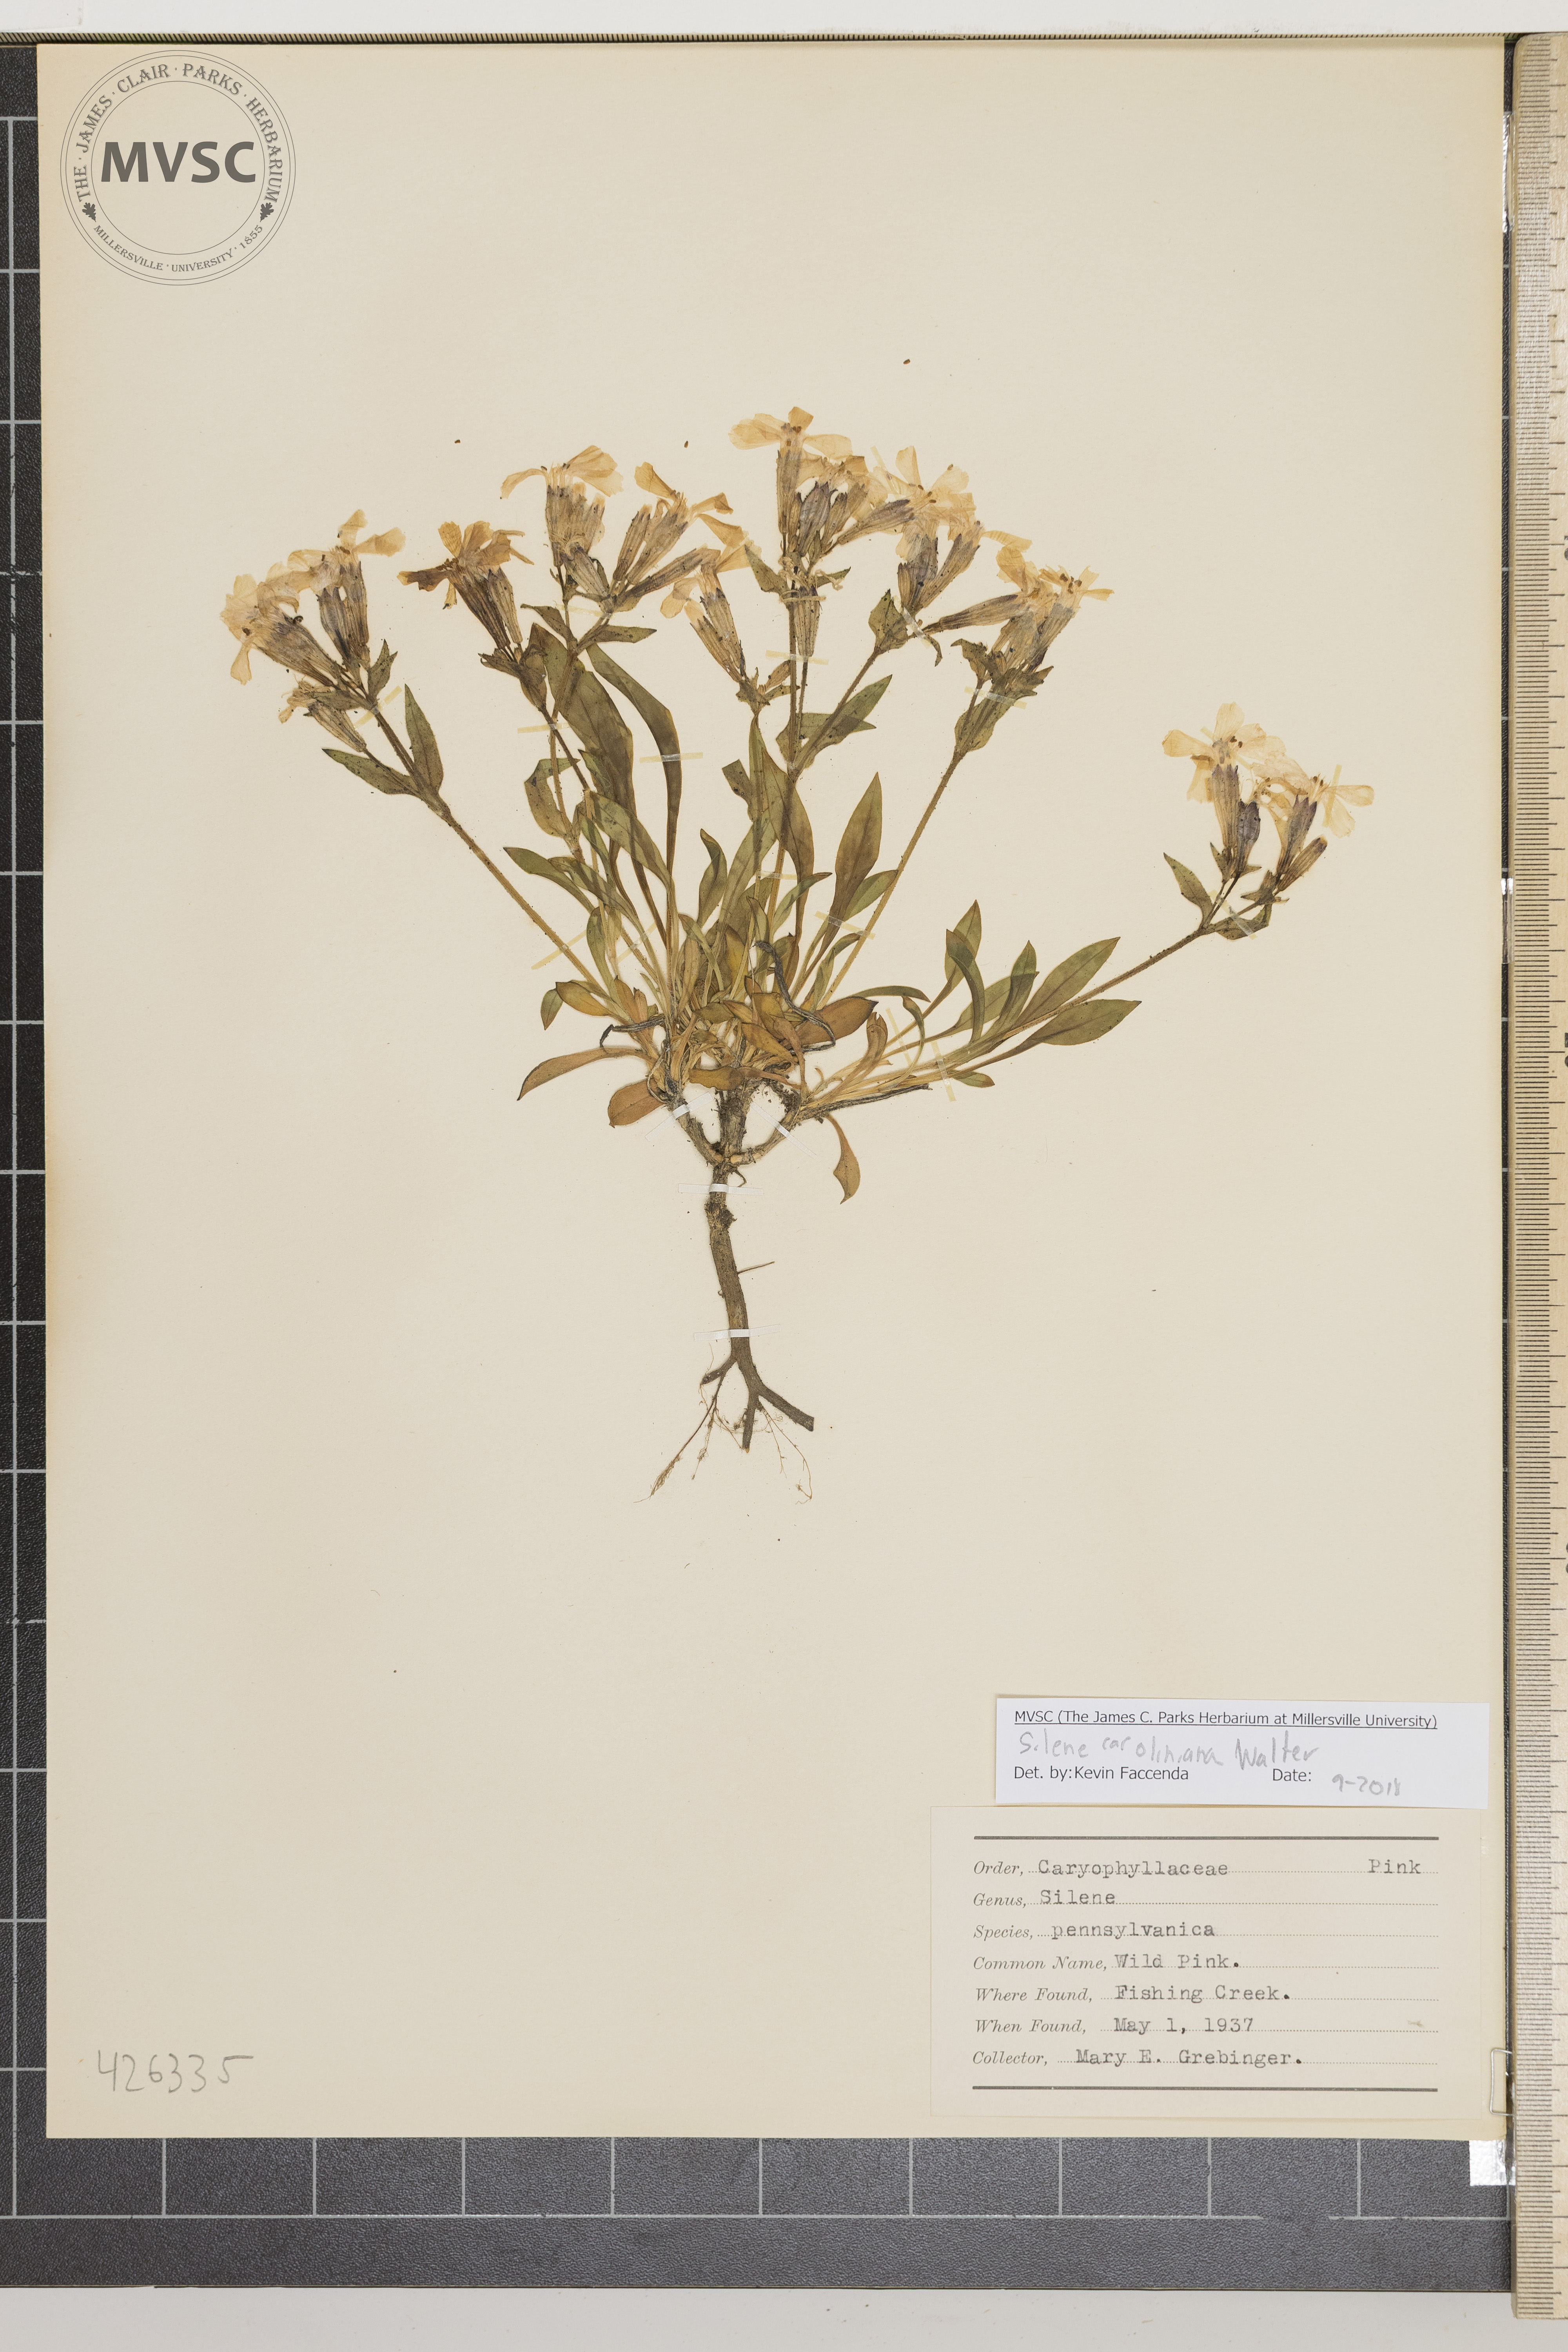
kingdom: Plantae
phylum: Tracheophyta
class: Magnoliopsida
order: Caryophyllales
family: Caryophyllaceae
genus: Saponaria
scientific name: Saponaria officinalis
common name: Bouncing Bet
